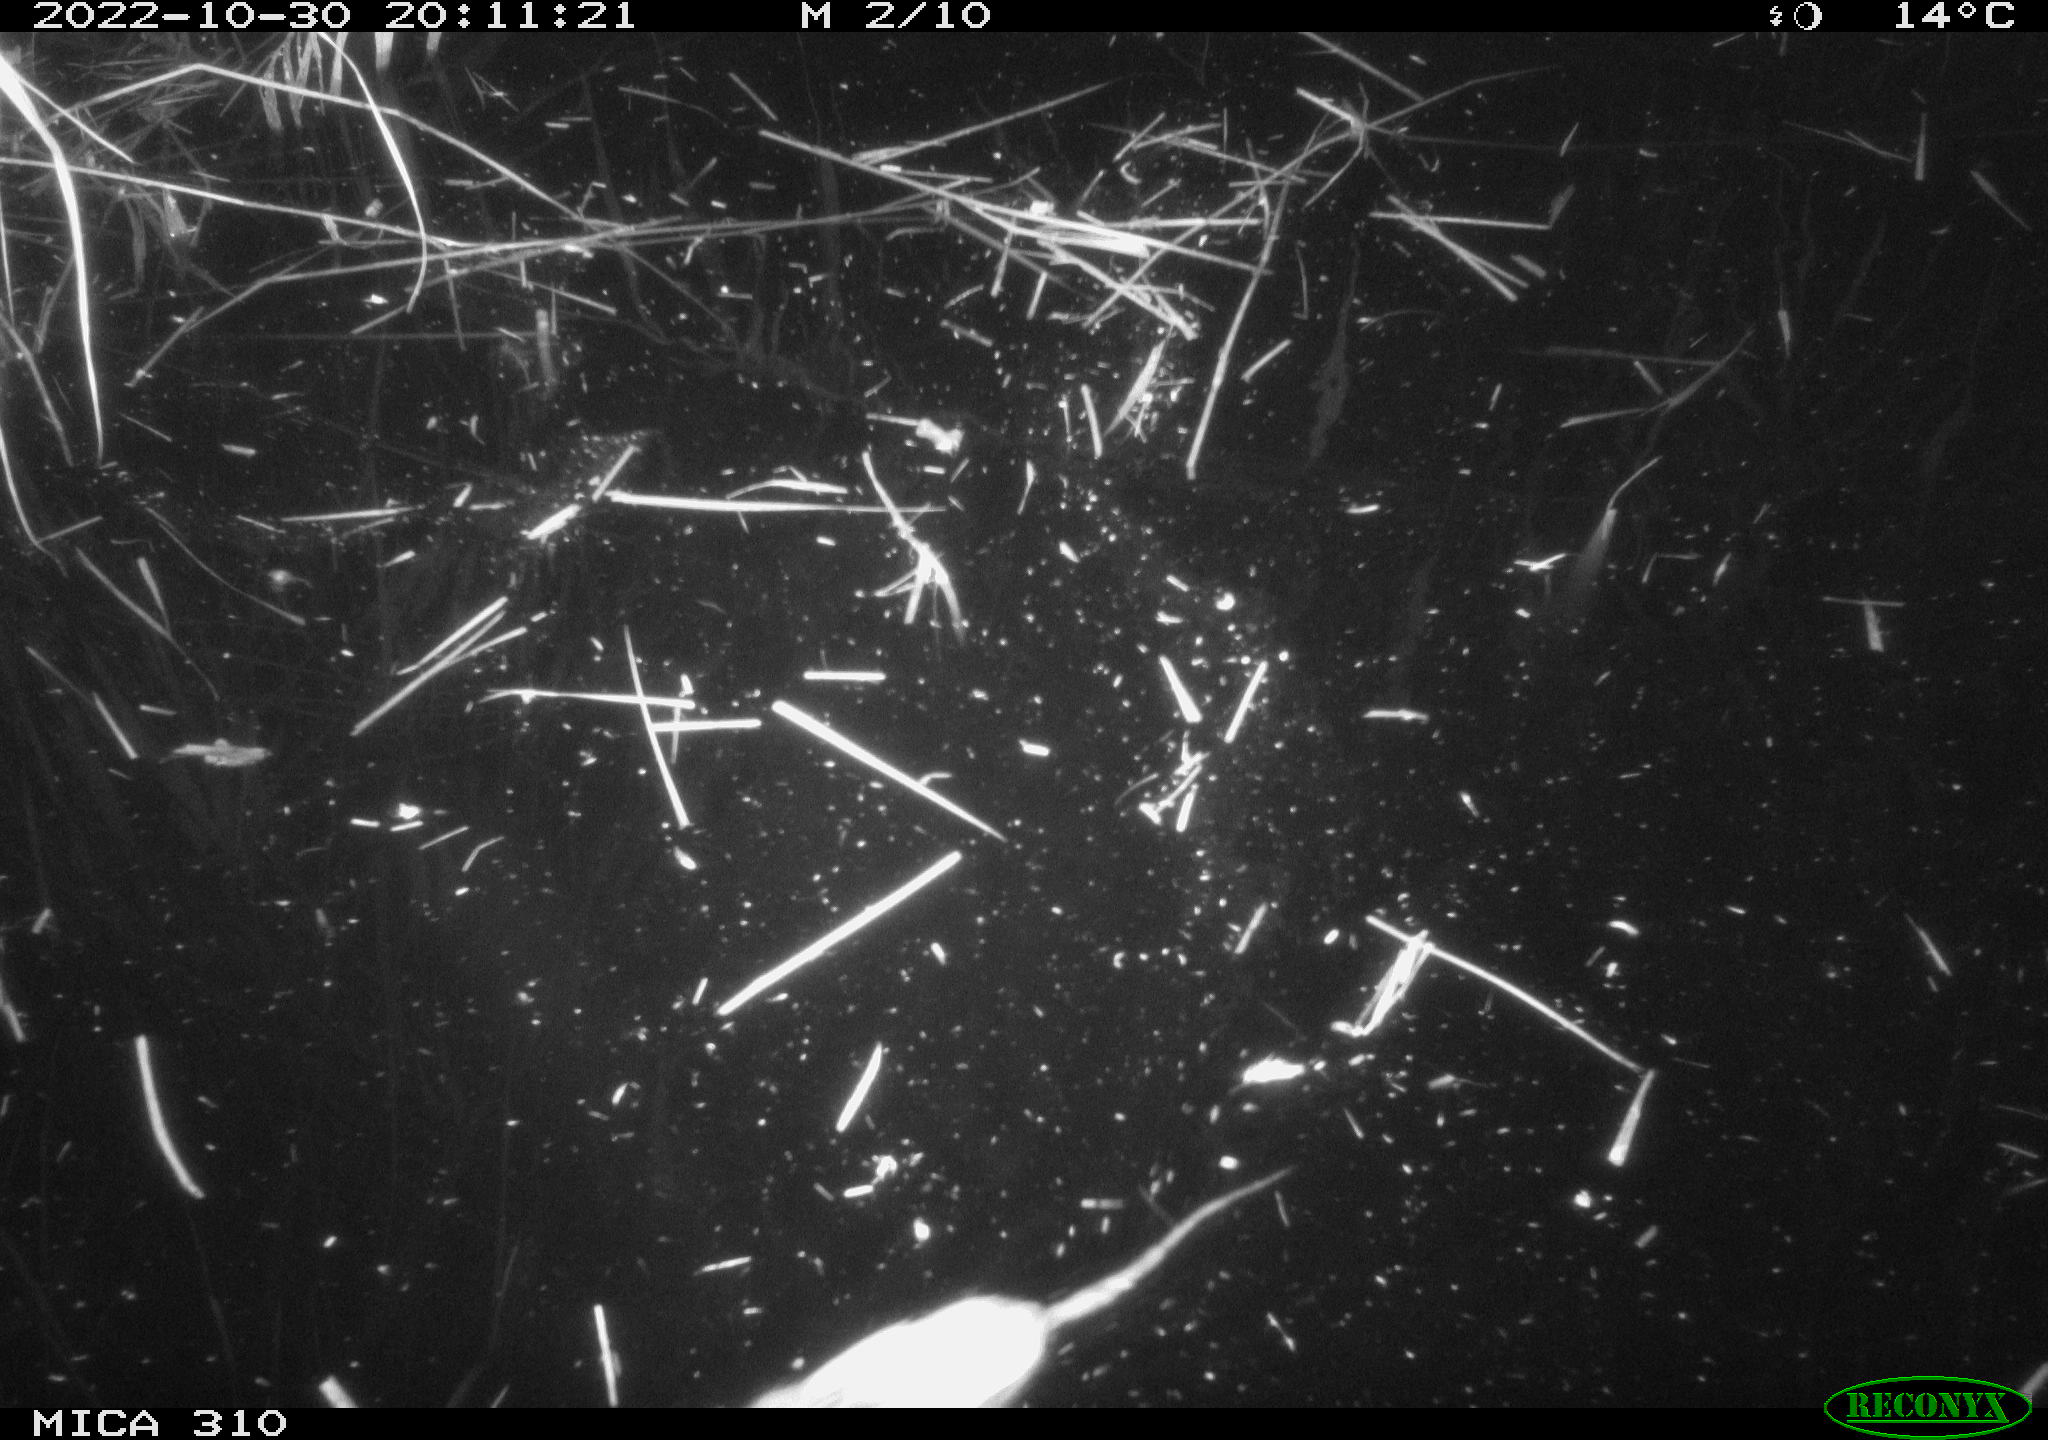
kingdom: Animalia
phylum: Chordata
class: Mammalia
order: Rodentia
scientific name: Rodentia
